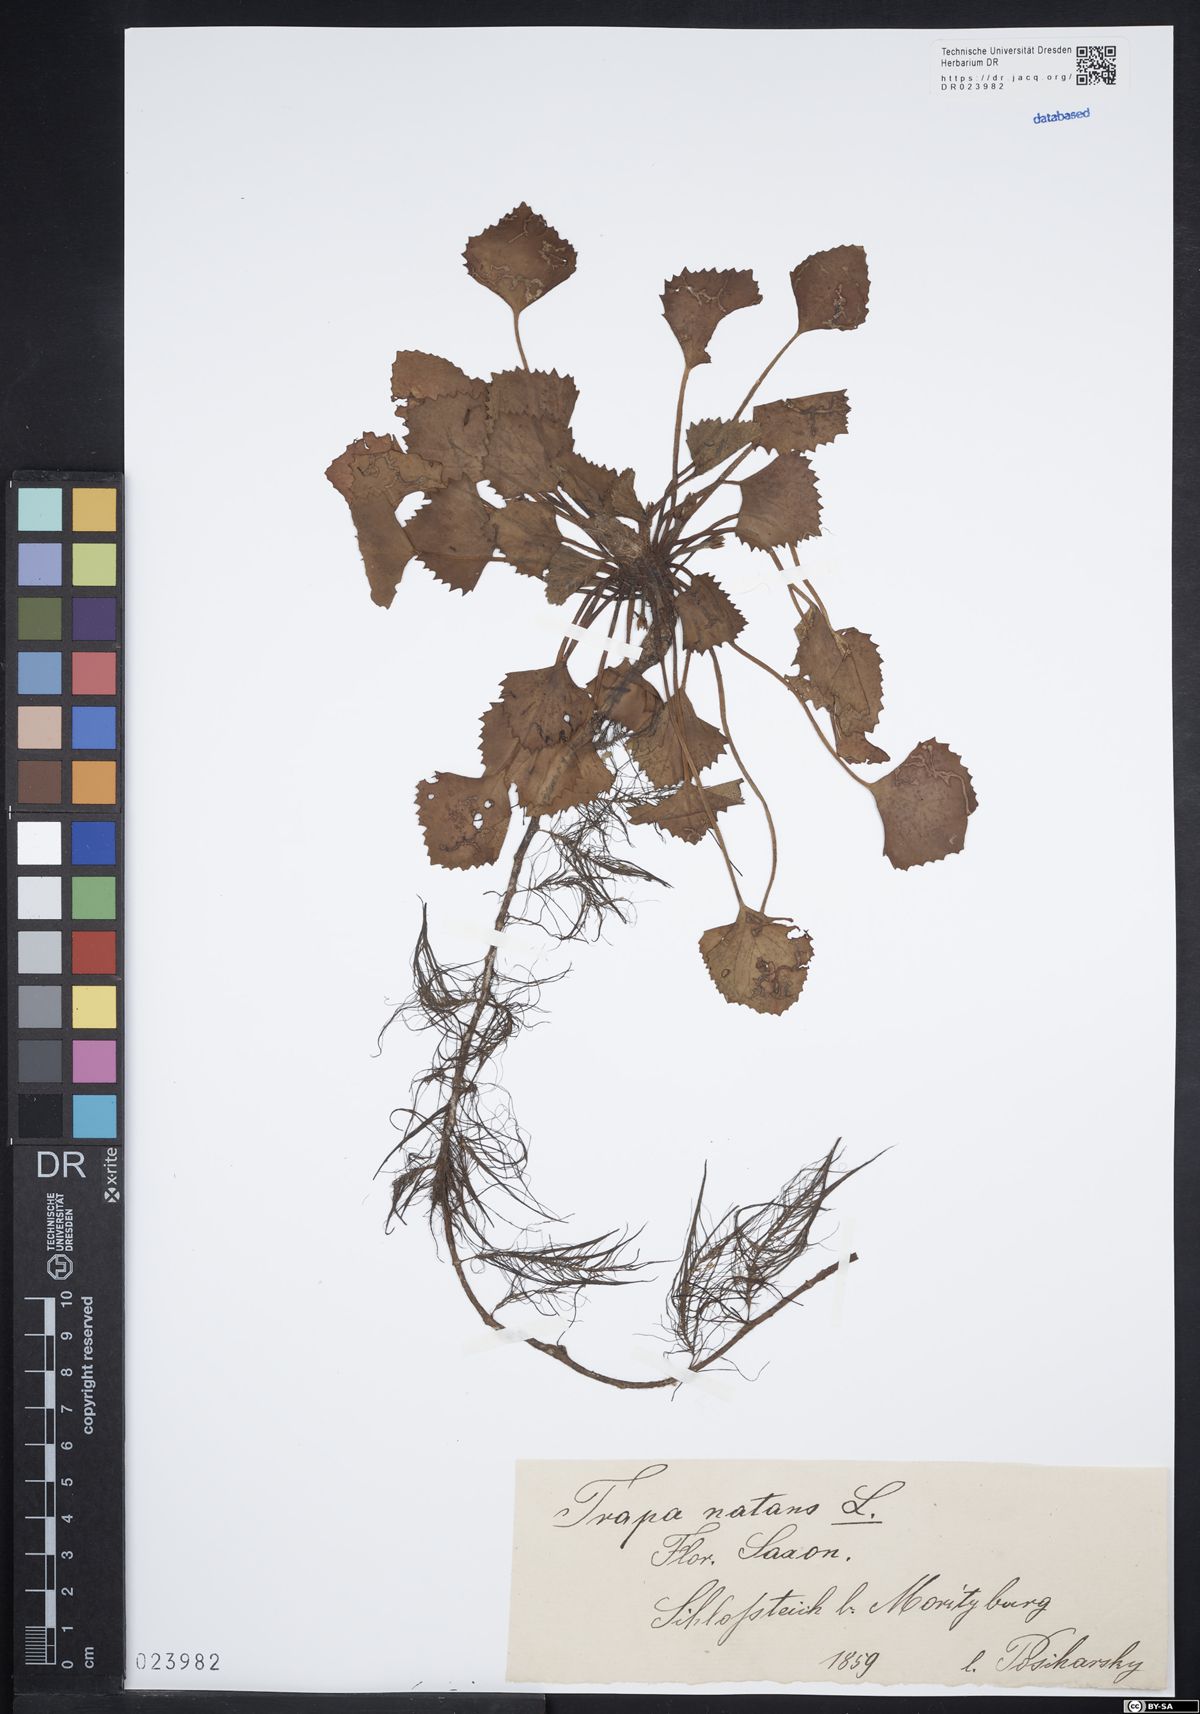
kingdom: Plantae
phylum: Tracheophyta
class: Magnoliopsida
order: Myrtales
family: Lythraceae
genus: Trapa
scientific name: Trapa natans
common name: Water chestnut
